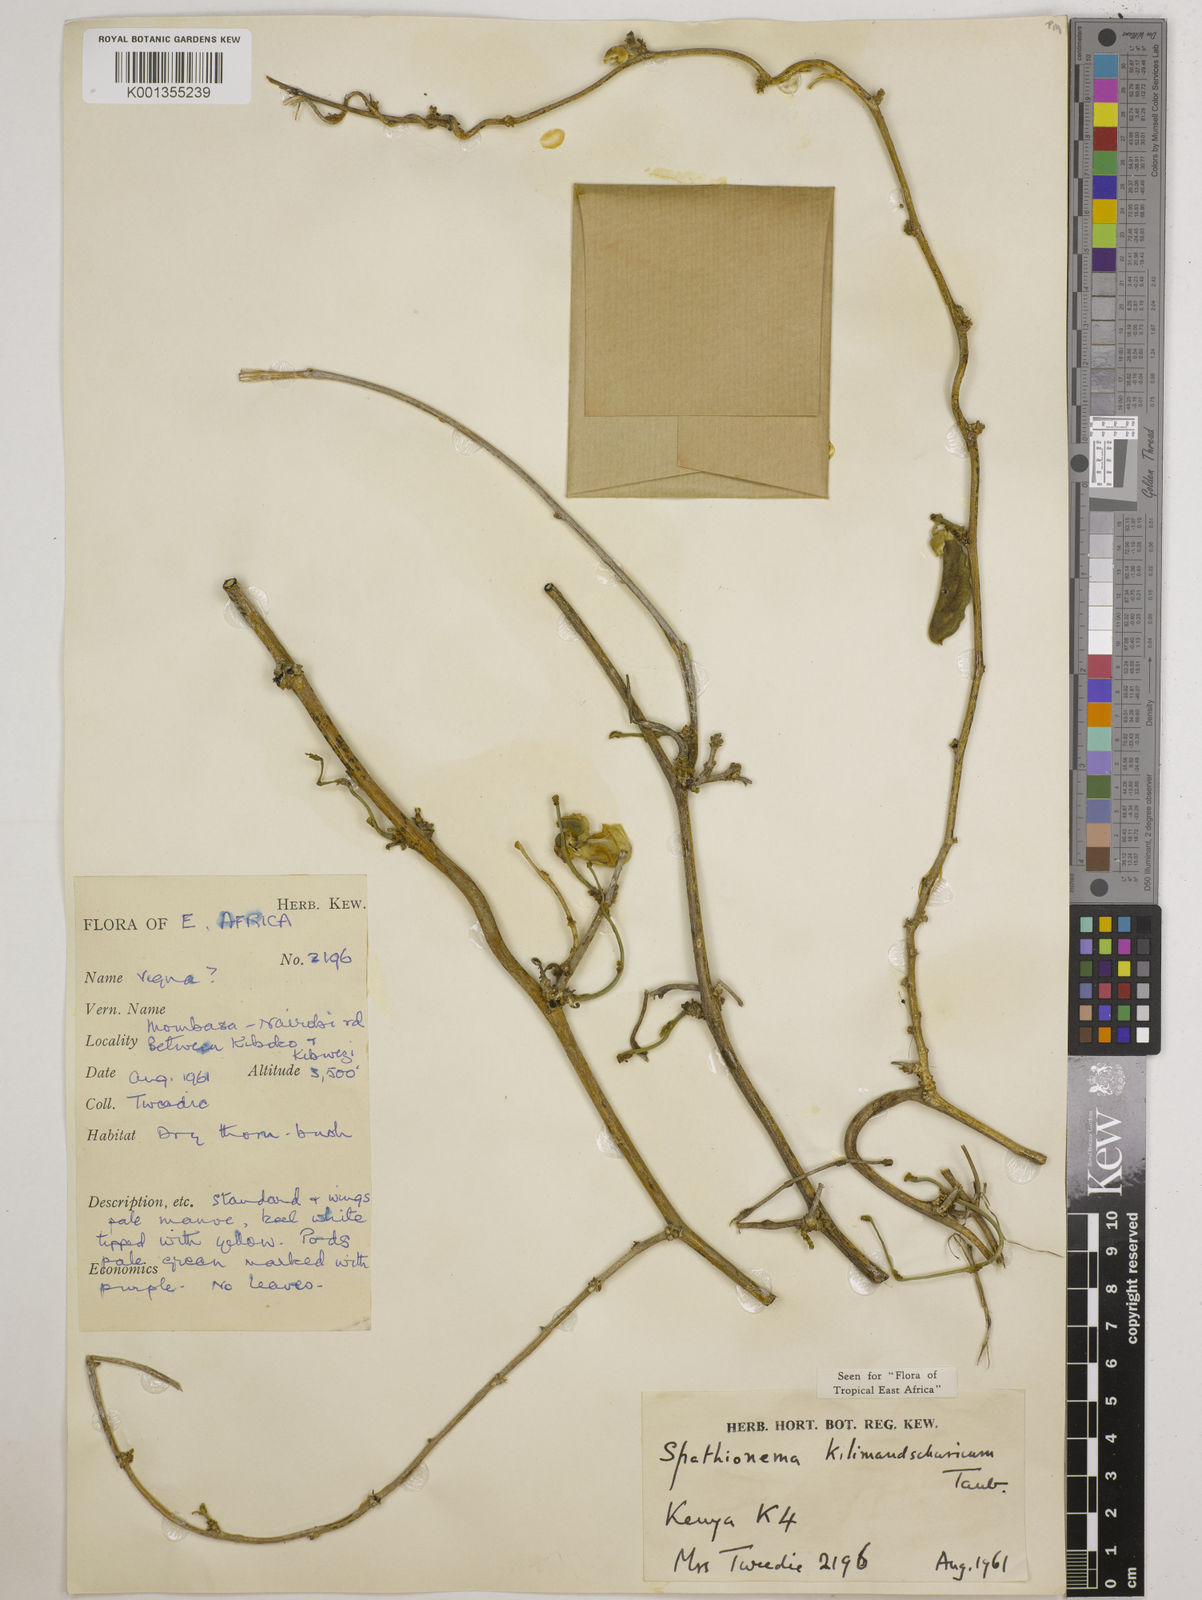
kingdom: Plantae
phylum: Tracheophyta
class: Magnoliopsida
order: Fabales
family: Fabaceae
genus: Spathionema
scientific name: Spathionema kilimandscharicum
